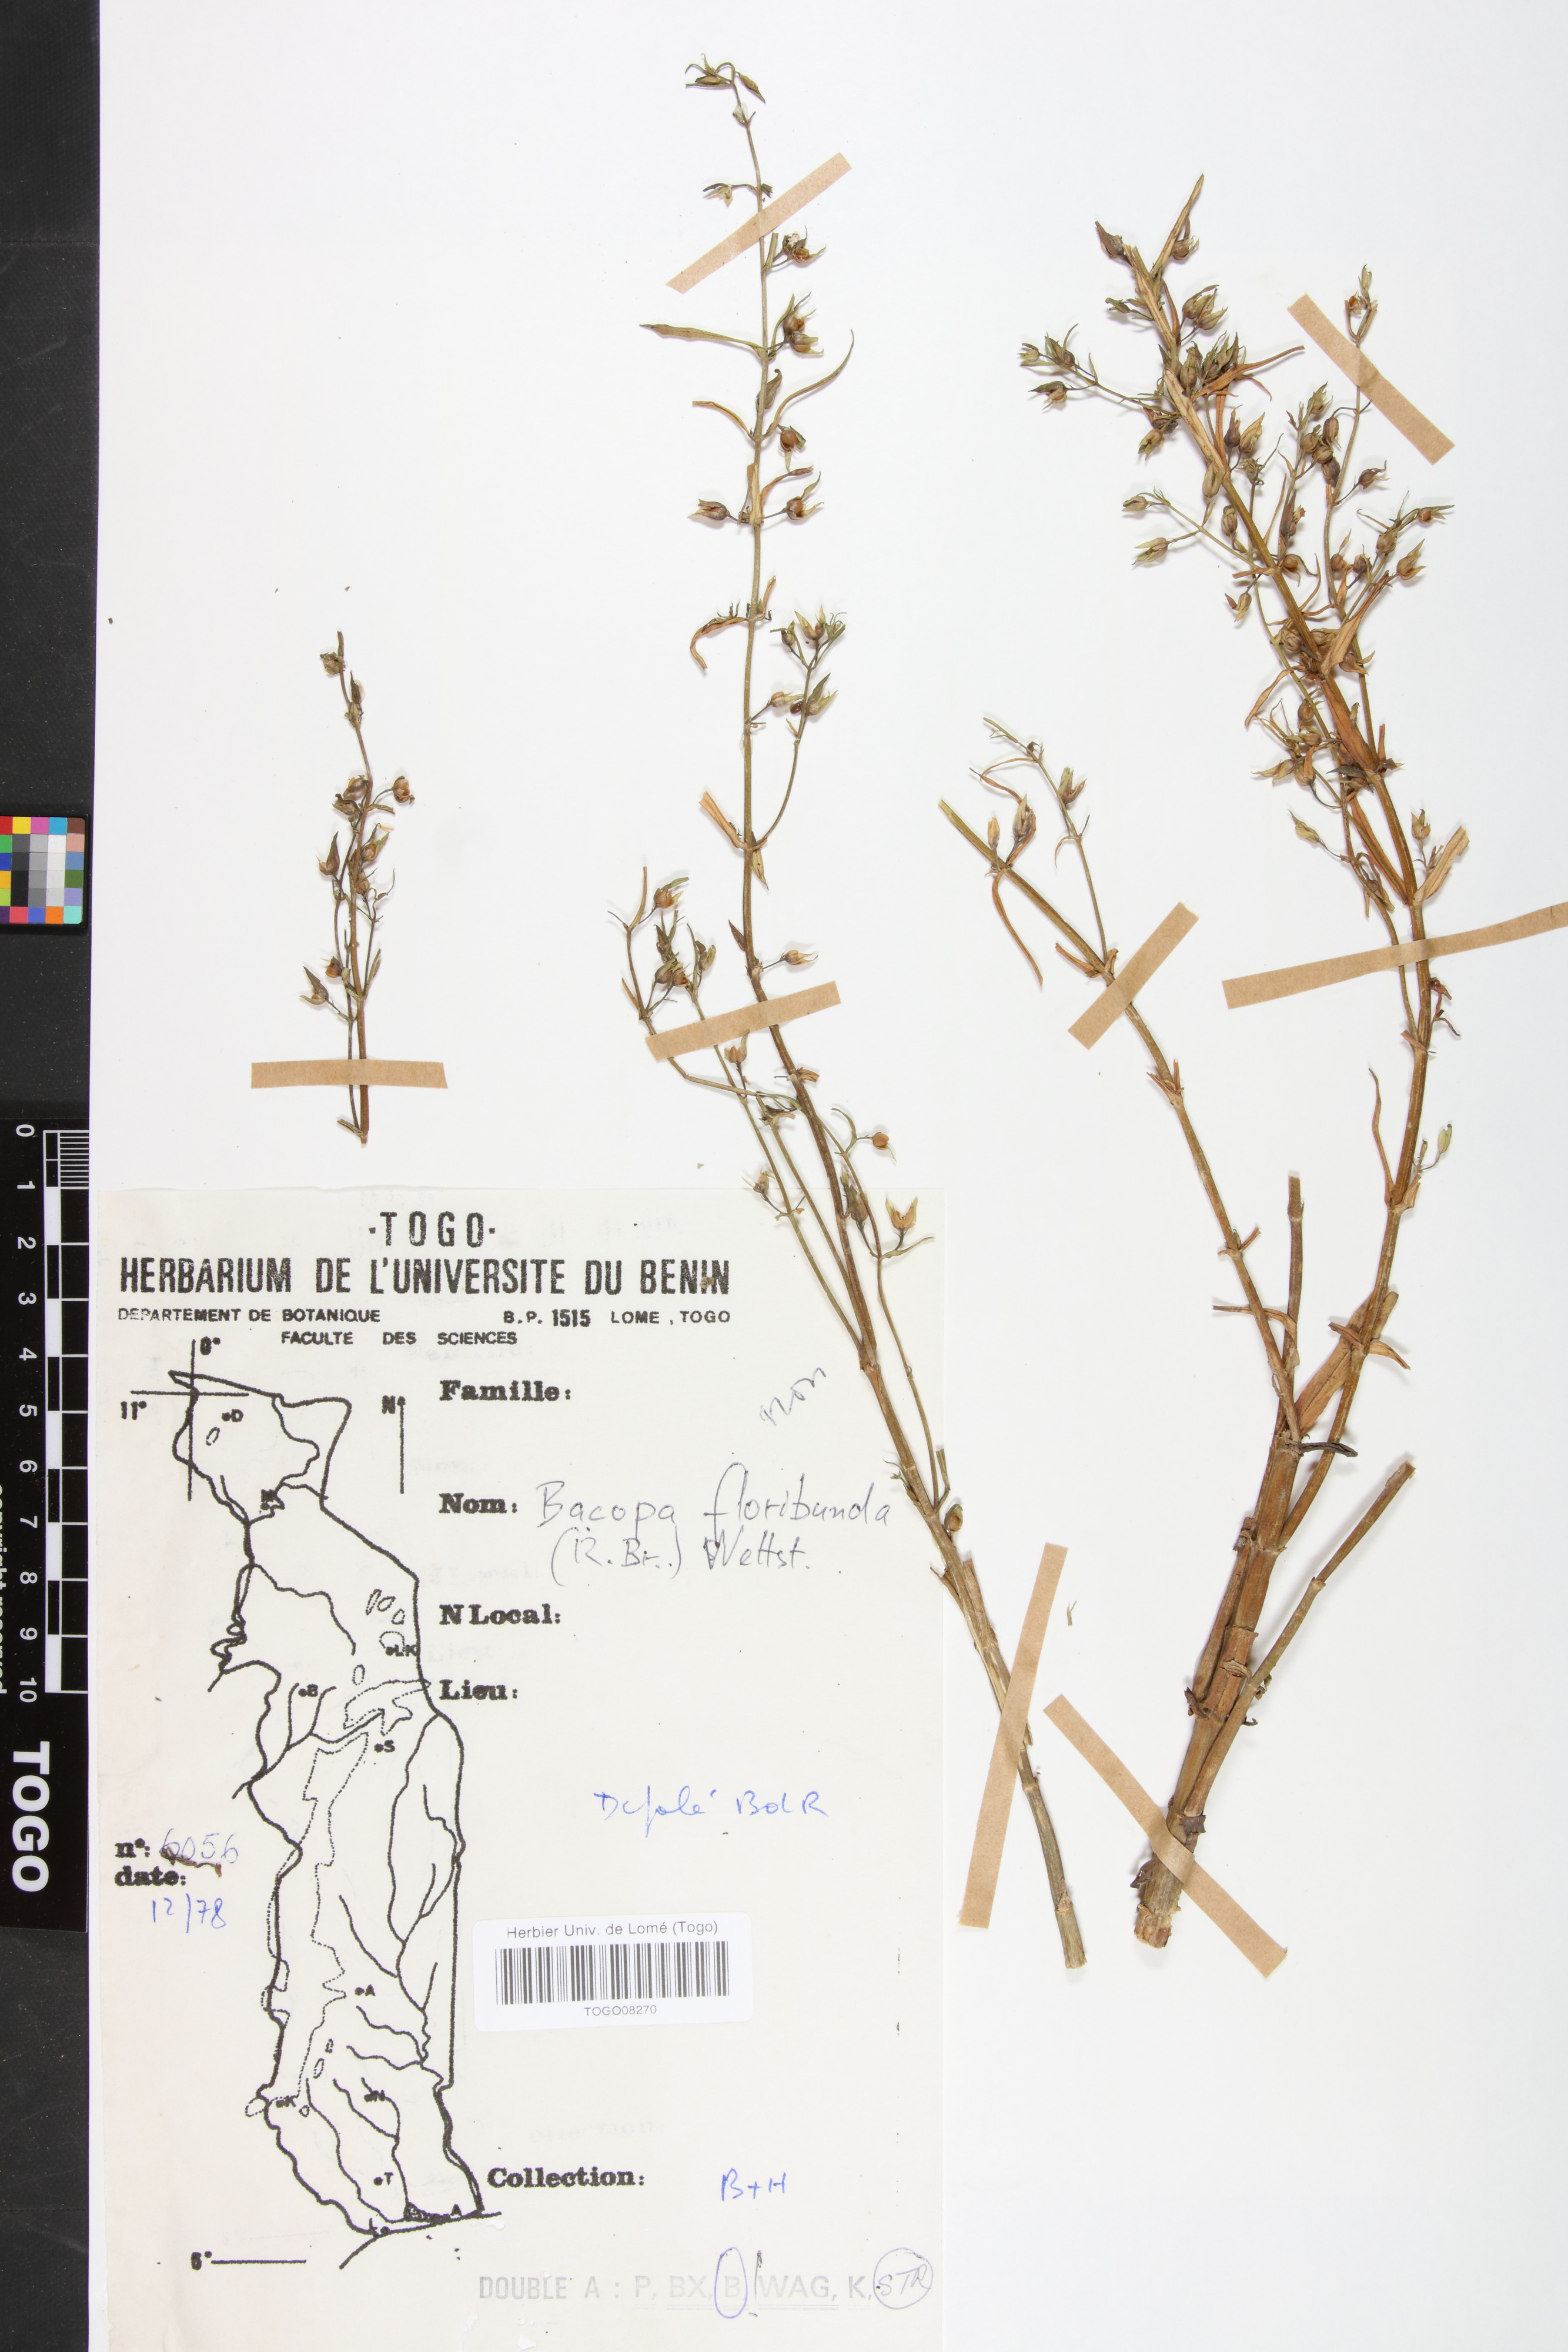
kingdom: Plantae
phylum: Tracheophyta
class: Magnoliopsida
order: Lamiales
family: Plantaginaceae
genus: Bacopa
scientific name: Bacopa floribunda
